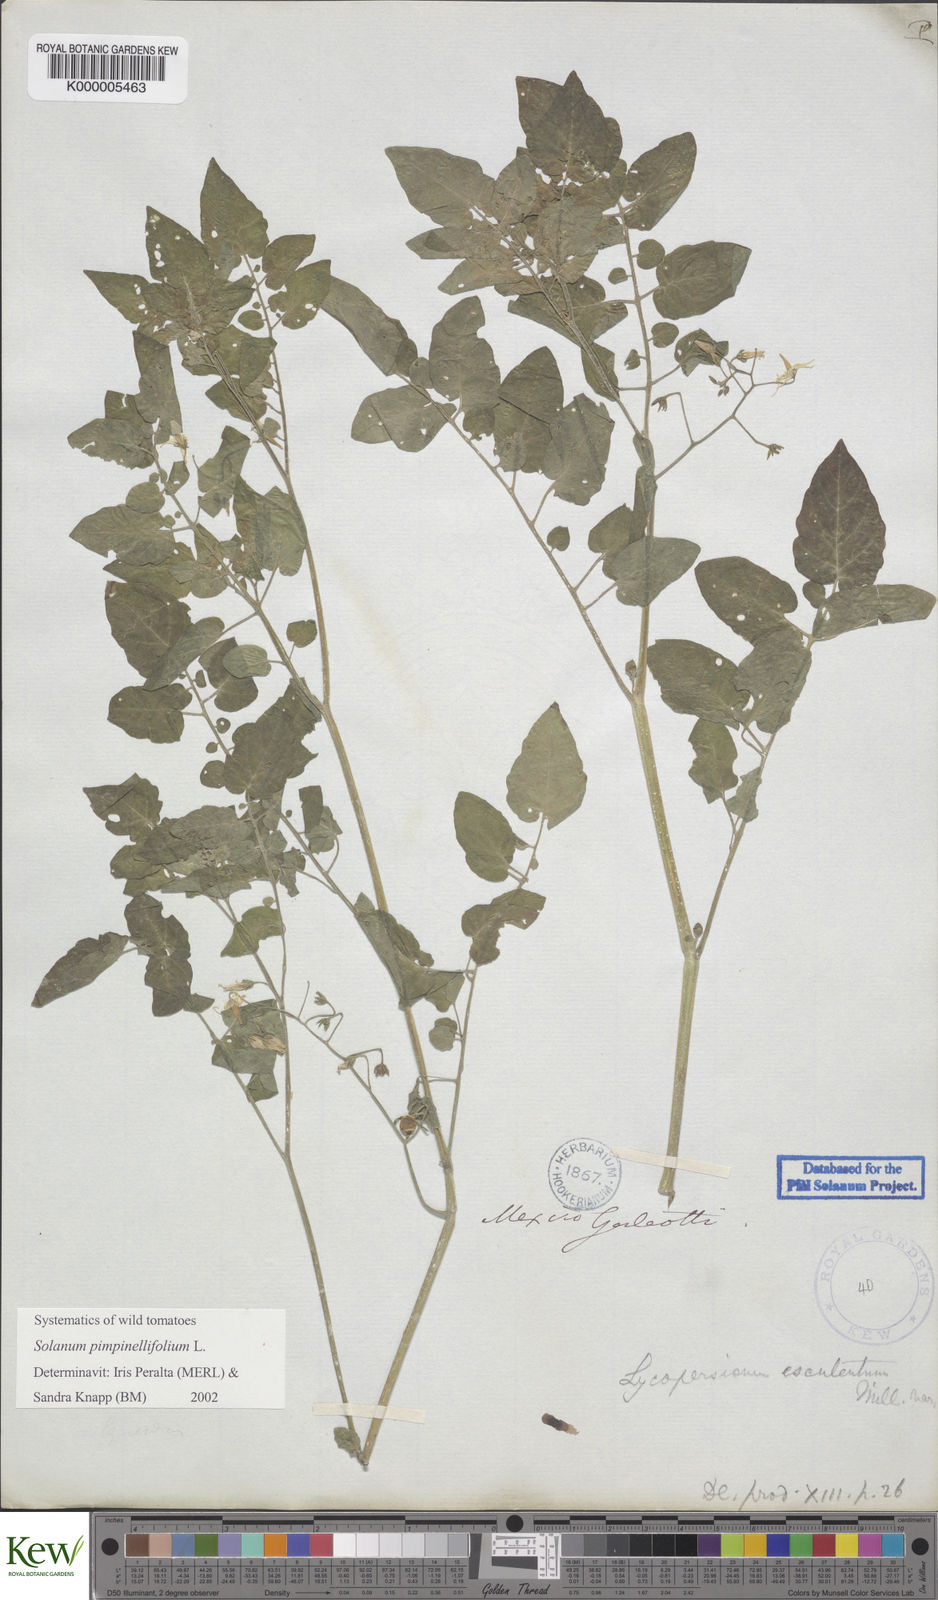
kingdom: Plantae
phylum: Tracheophyta
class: Magnoliopsida
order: Solanales
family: Solanaceae
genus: Solanum
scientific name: Solanum pimpinellifolium
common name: Currant-tomato
